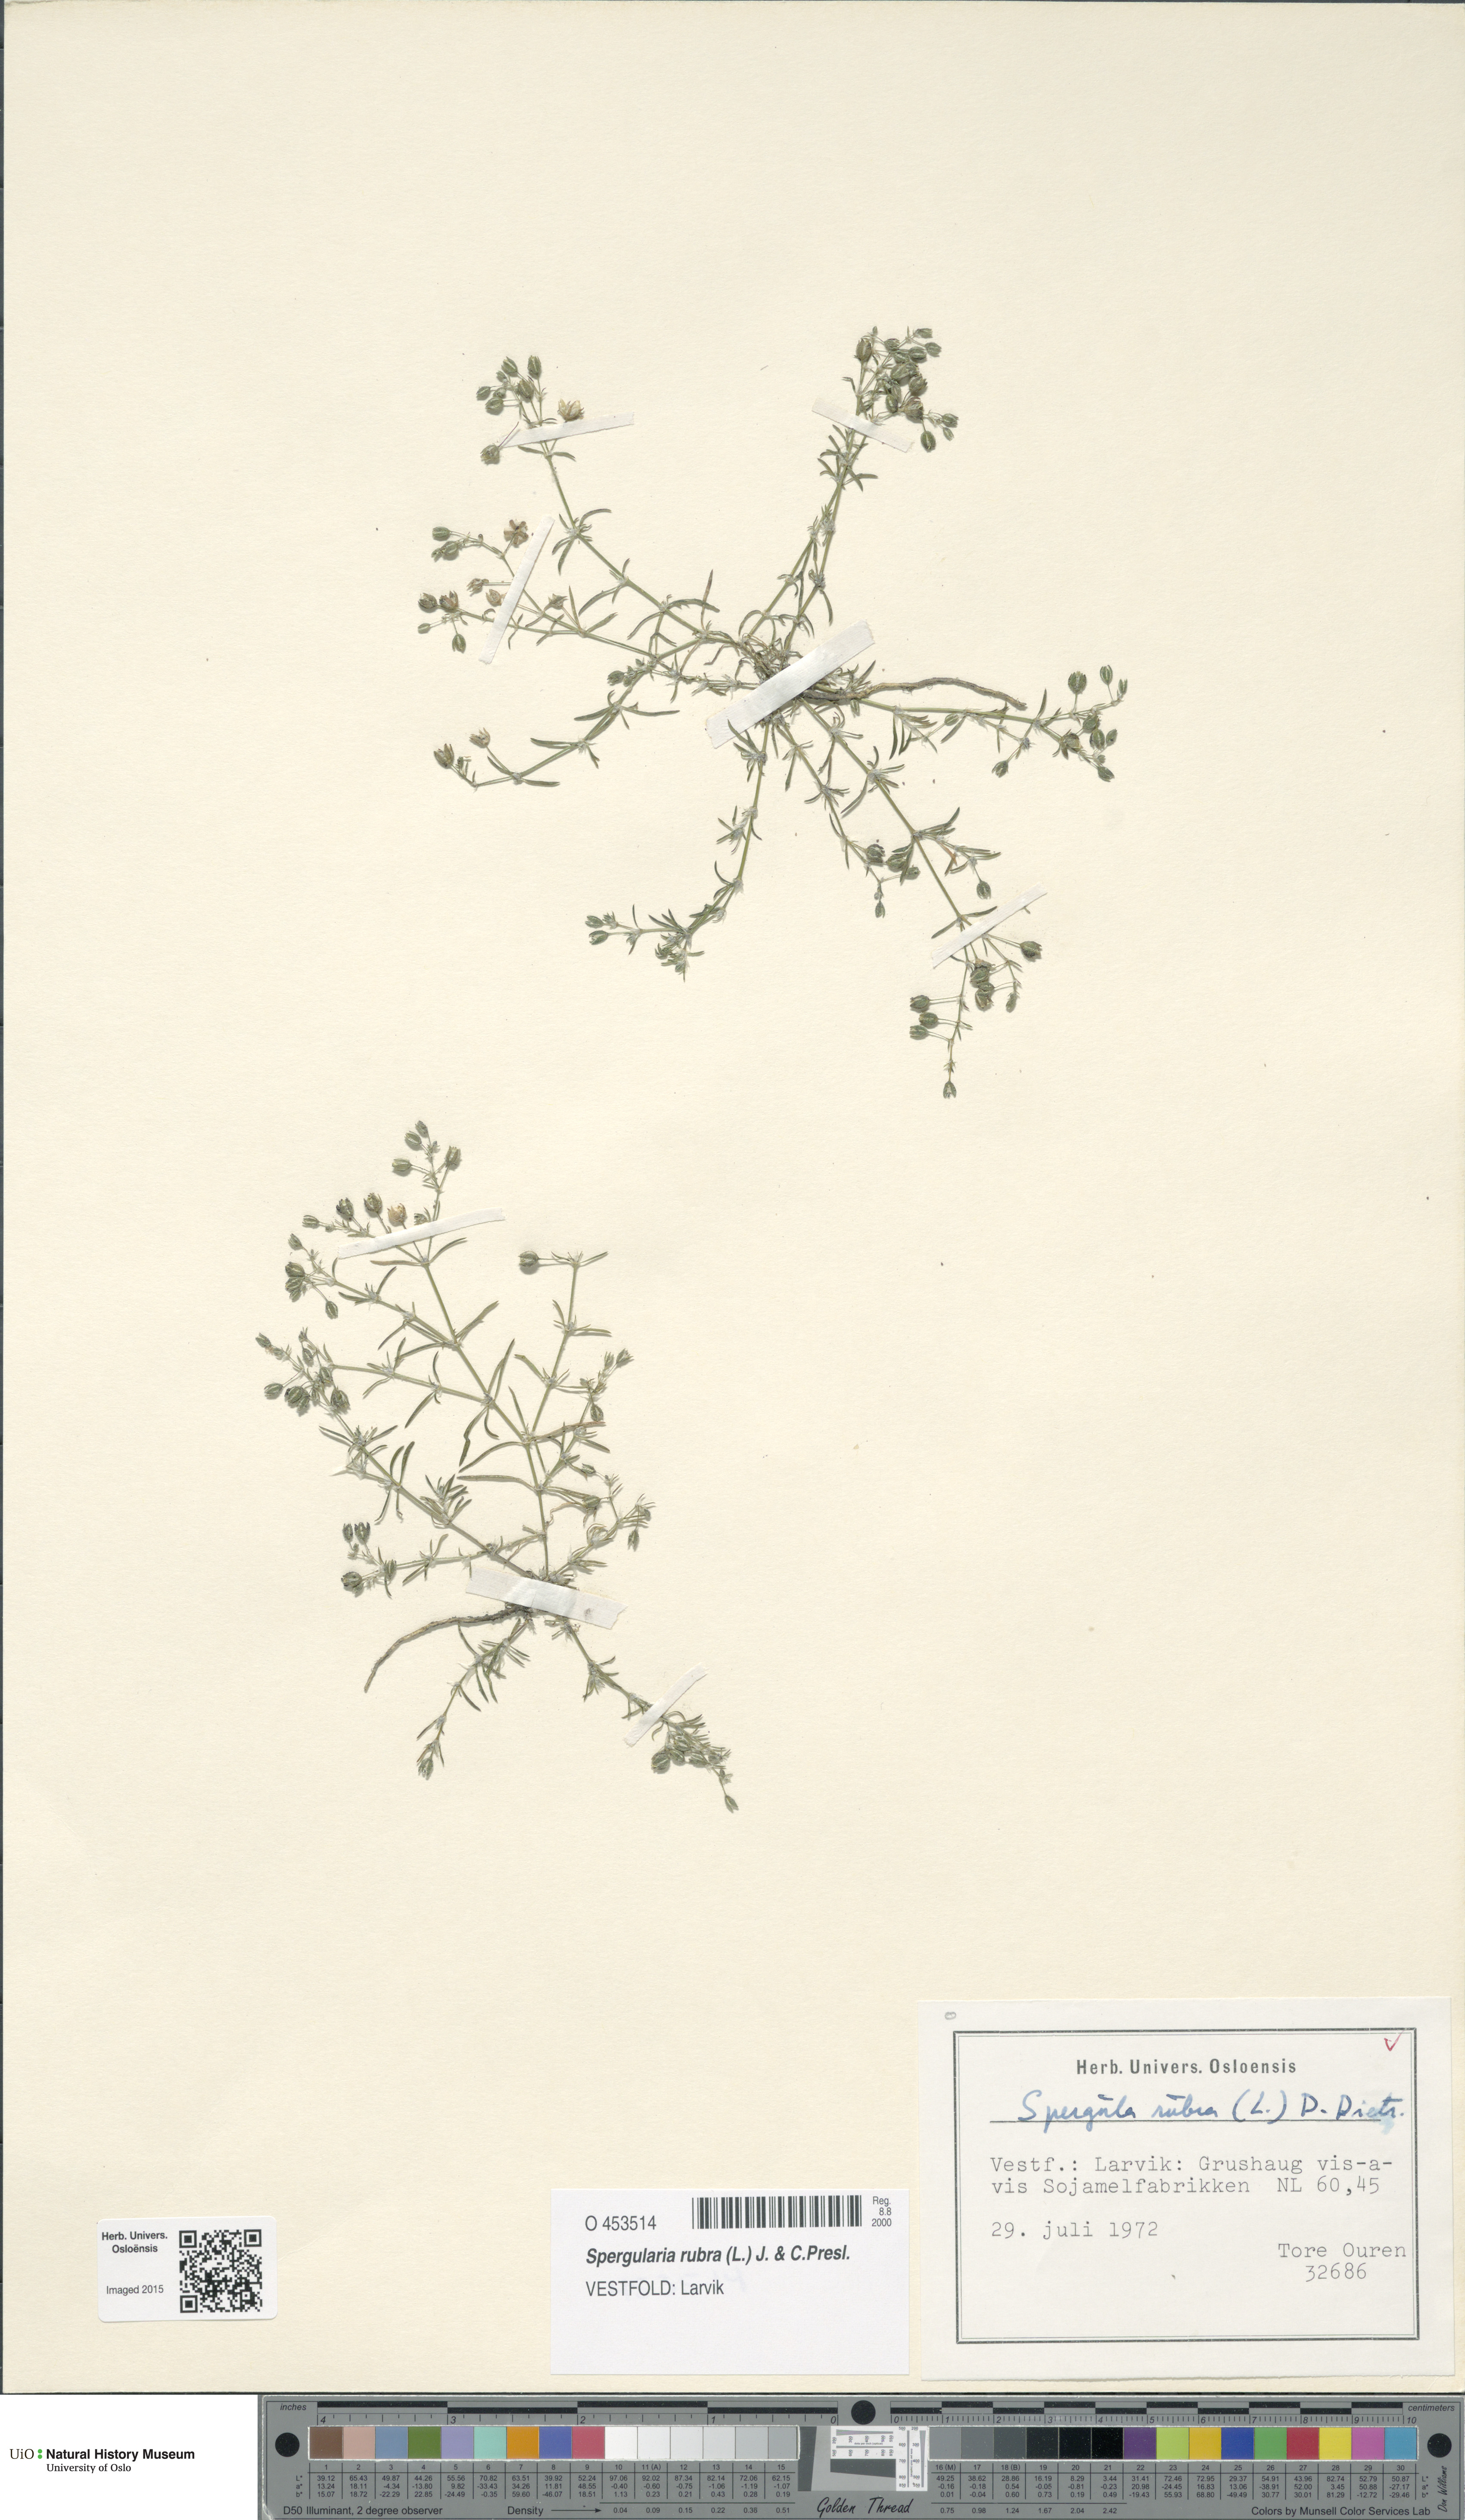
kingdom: Plantae
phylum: Tracheophyta
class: Magnoliopsida
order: Caryophyllales
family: Caryophyllaceae
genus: Spergularia
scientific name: Spergularia rubra
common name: Red sand-spurrey
